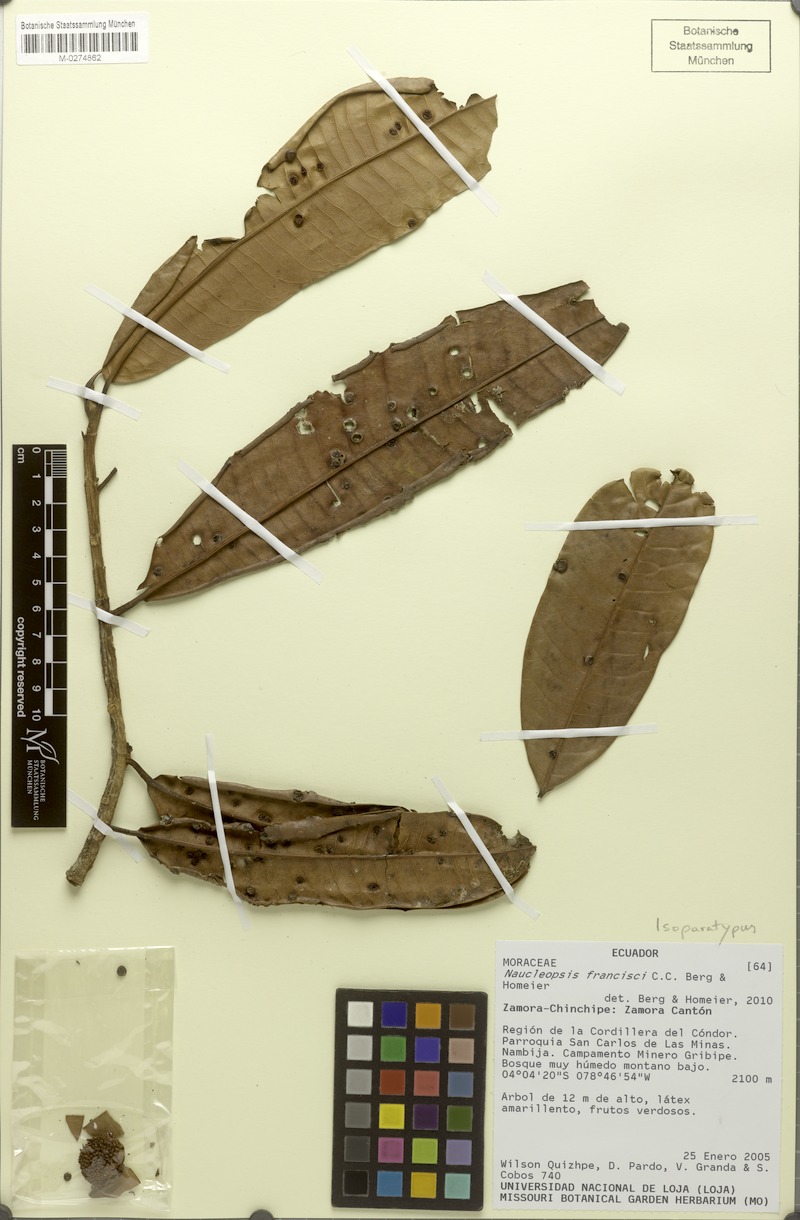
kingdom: Plantae
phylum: Tracheophyta
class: Magnoliopsida
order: Rosales
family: Moraceae
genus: Naucleopsis
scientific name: Naucleopsis francisci
